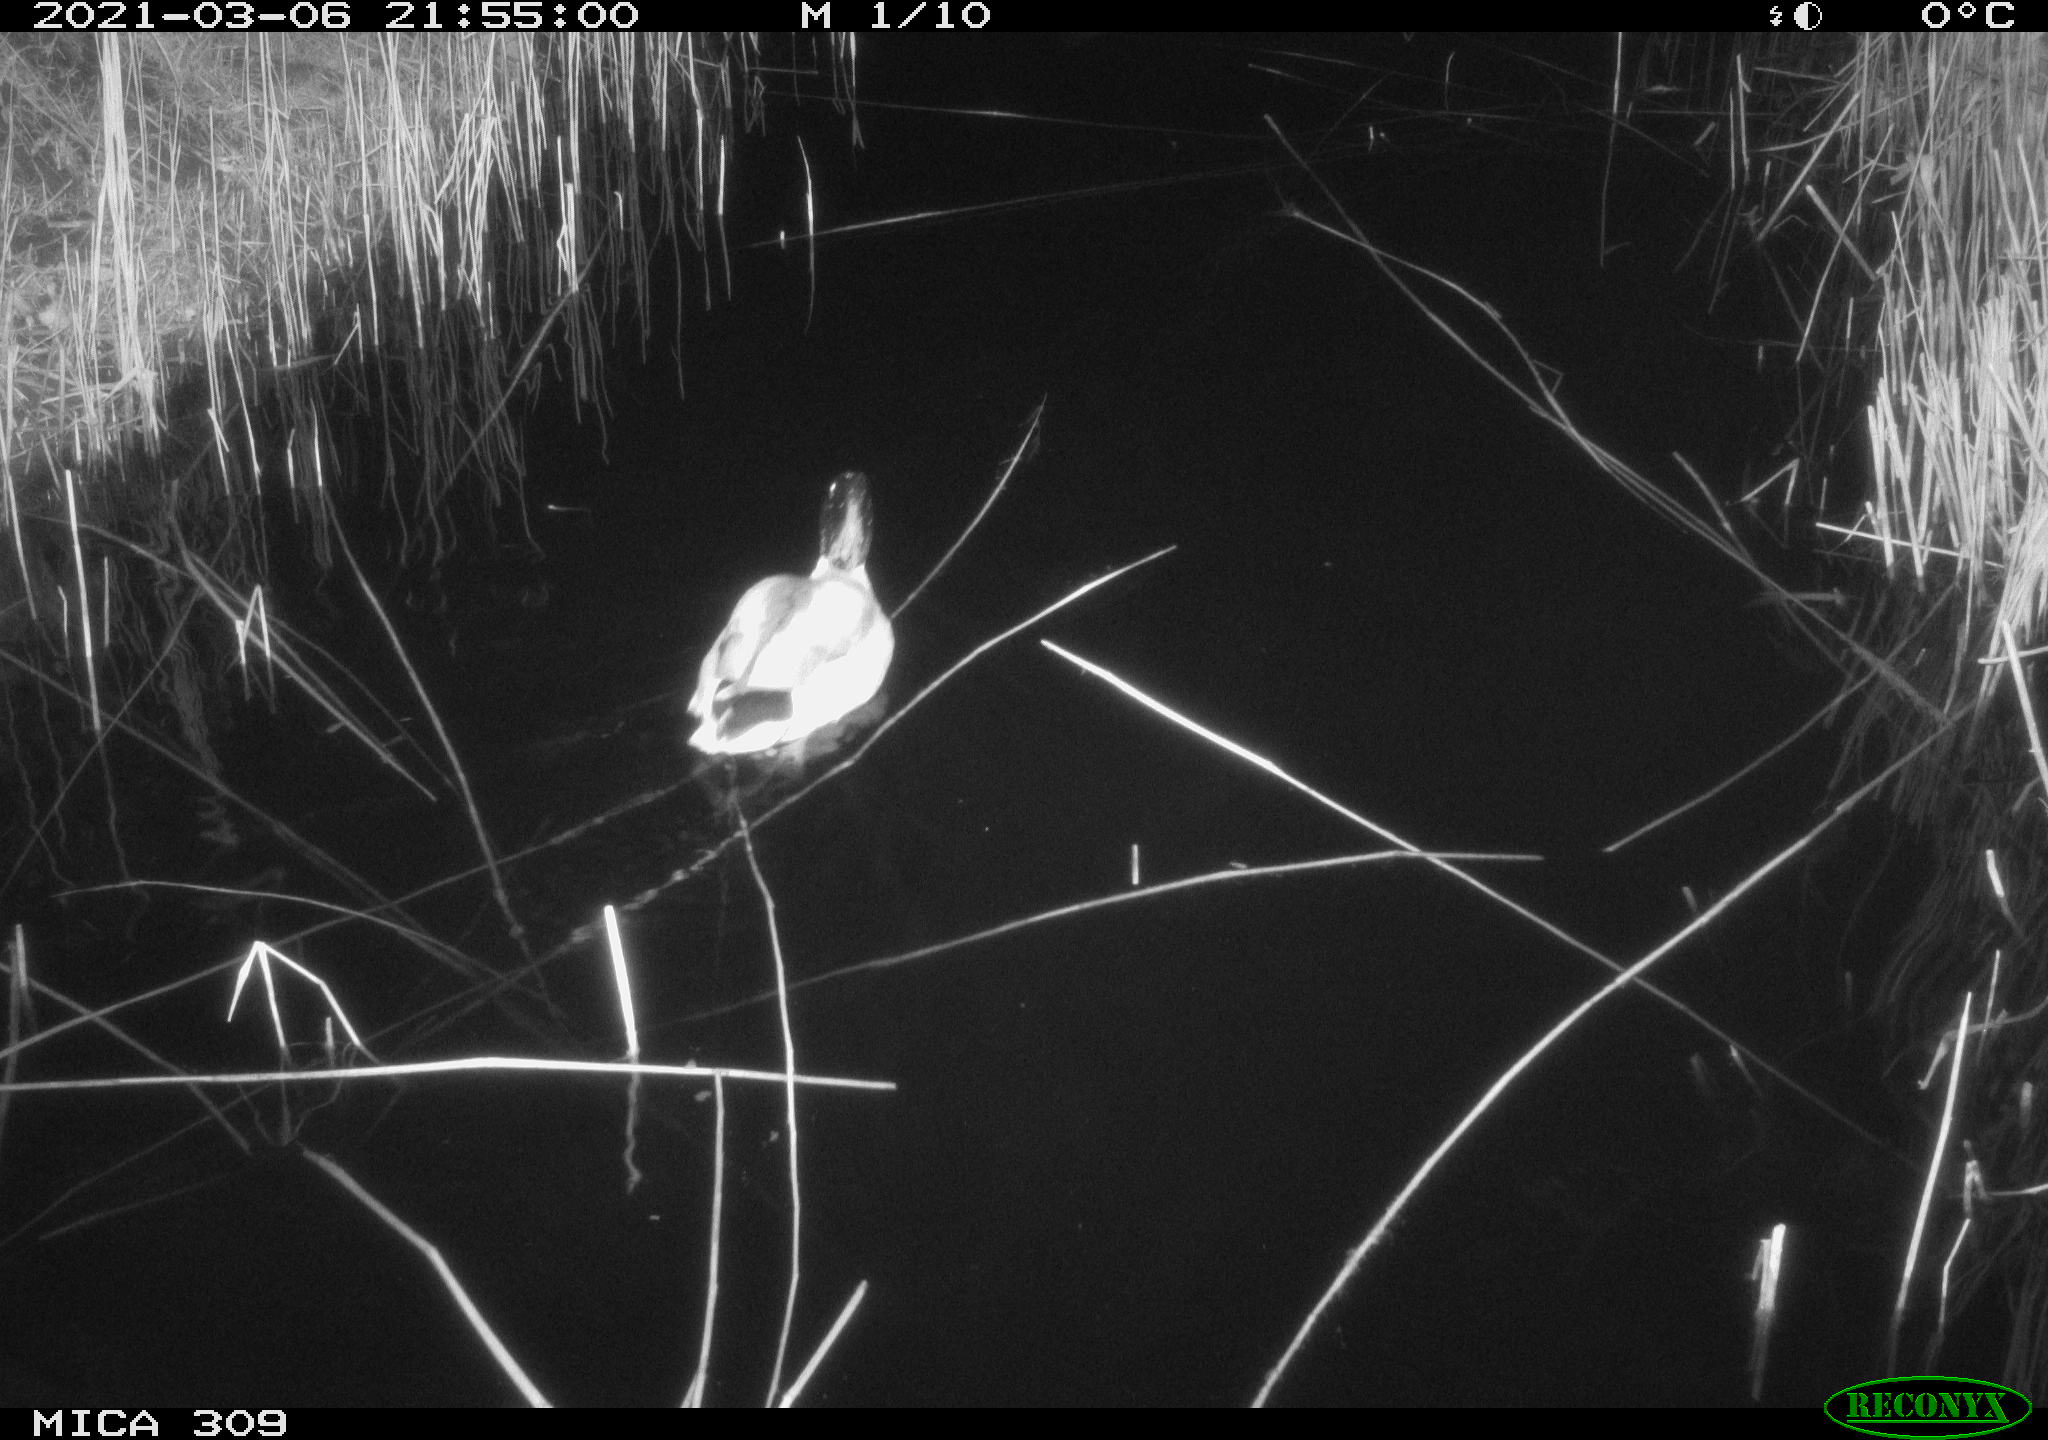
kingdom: Animalia
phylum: Chordata
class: Aves
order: Anseriformes
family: Anatidae
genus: Anas
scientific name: Anas platyrhynchos
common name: Mallard
